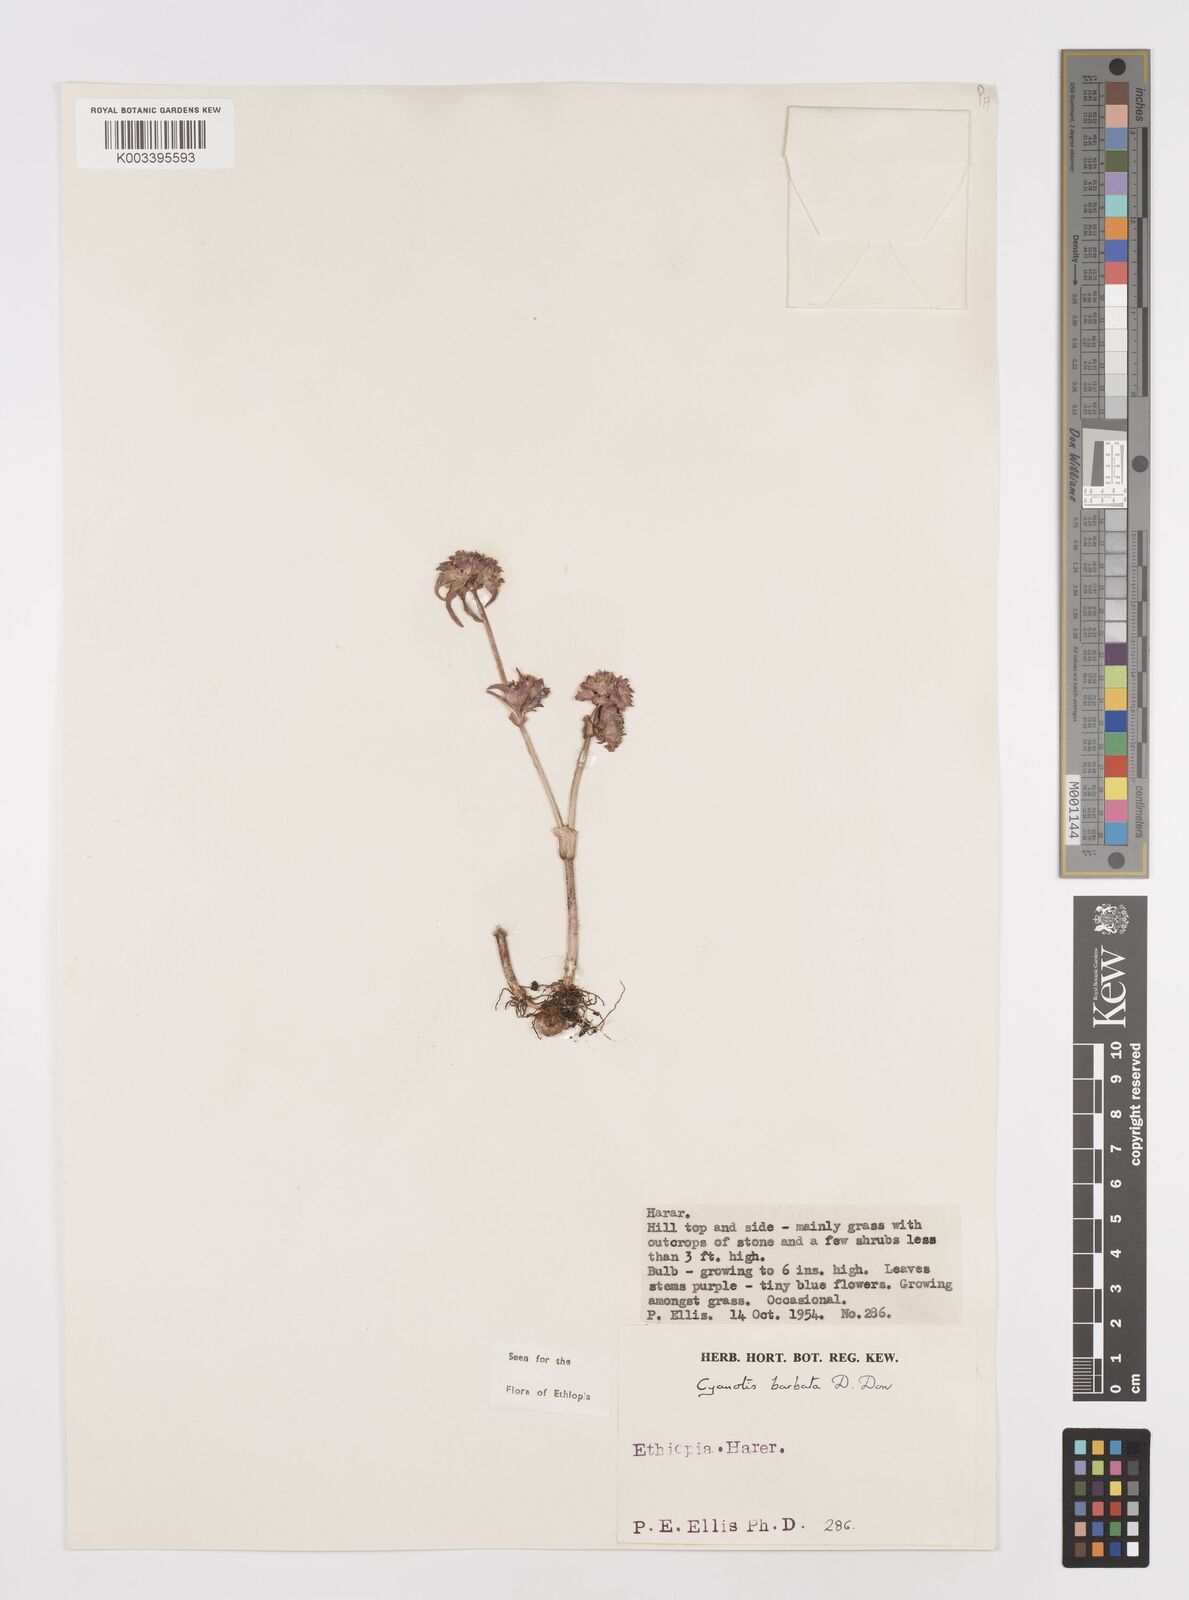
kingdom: Plantae
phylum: Tracheophyta
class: Liliopsida
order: Commelinales
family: Commelinaceae
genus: Cyanotis
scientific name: Cyanotis vaga
